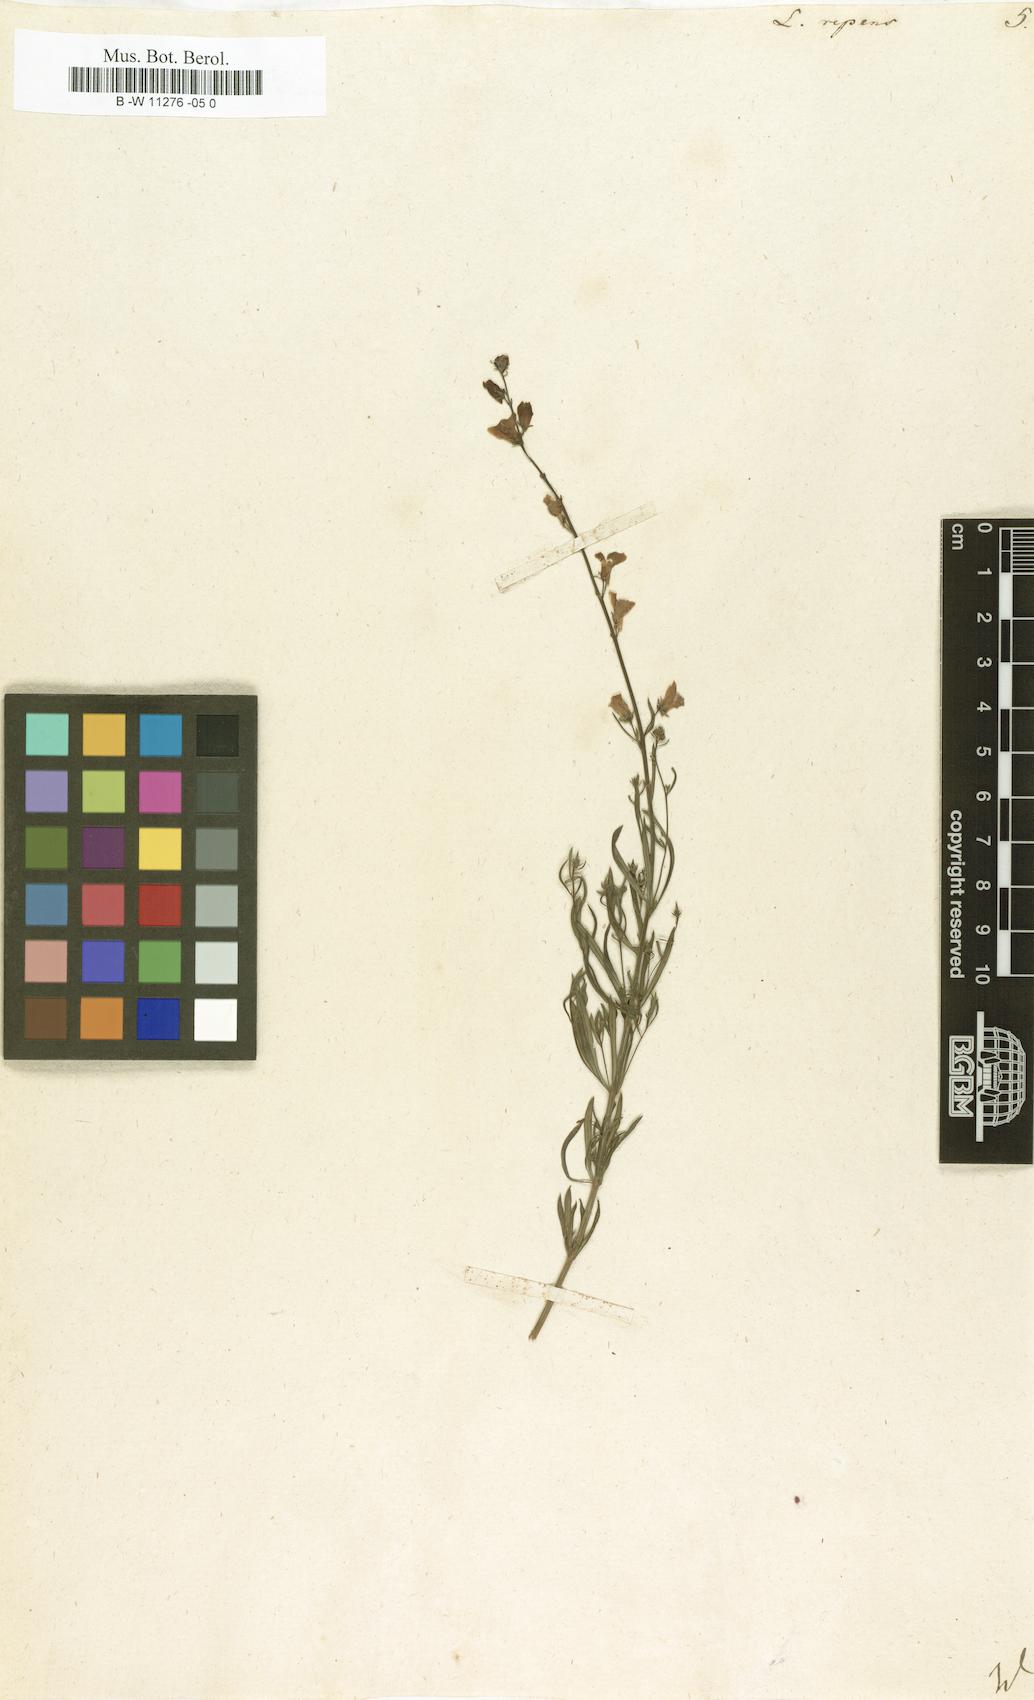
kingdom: Plantae
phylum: Tracheophyta
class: Magnoliopsida
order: Lamiales
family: Plantaginaceae
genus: Linaria
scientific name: Linaria repens
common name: Pale toadflax
